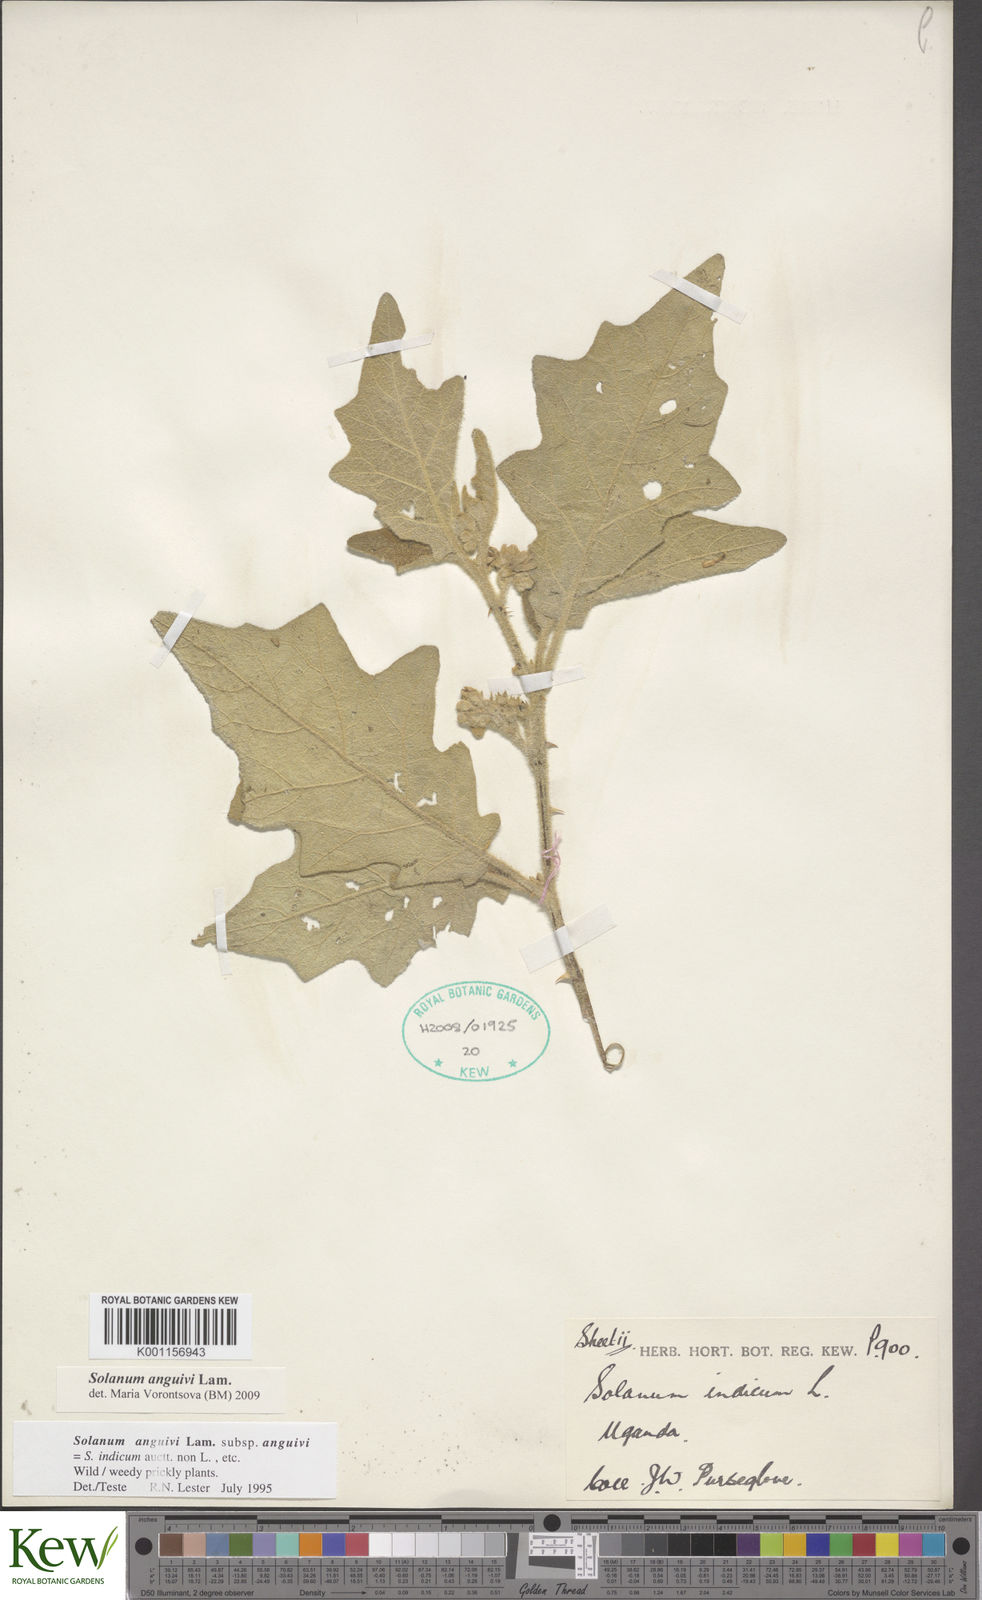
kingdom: Plantae
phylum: Tracheophyta
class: Magnoliopsida
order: Solanales
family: Solanaceae
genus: Solanum
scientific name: Solanum anguivi
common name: Forest bitterberry
